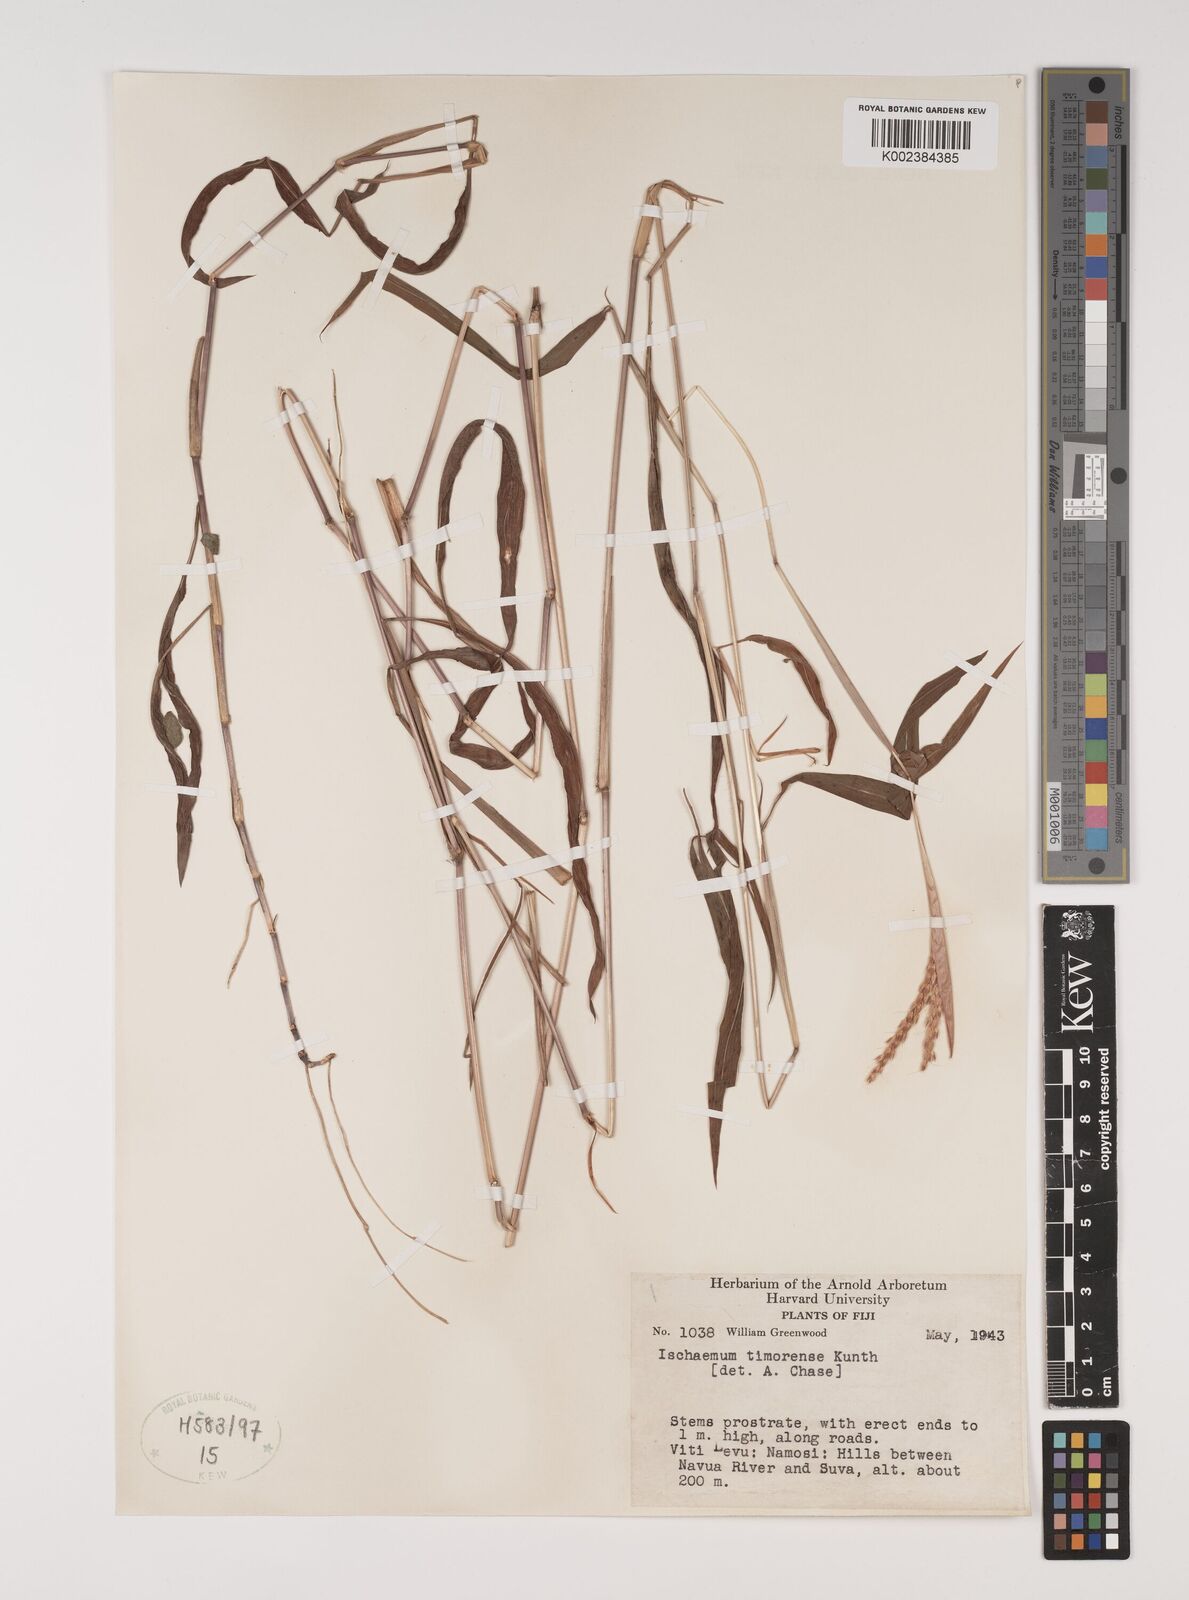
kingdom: Plantae
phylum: Tracheophyta
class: Liliopsida
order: Poales
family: Poaceae
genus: Ischaemum
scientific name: Ischaemum timorense
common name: Stalkleaf murainagrass
